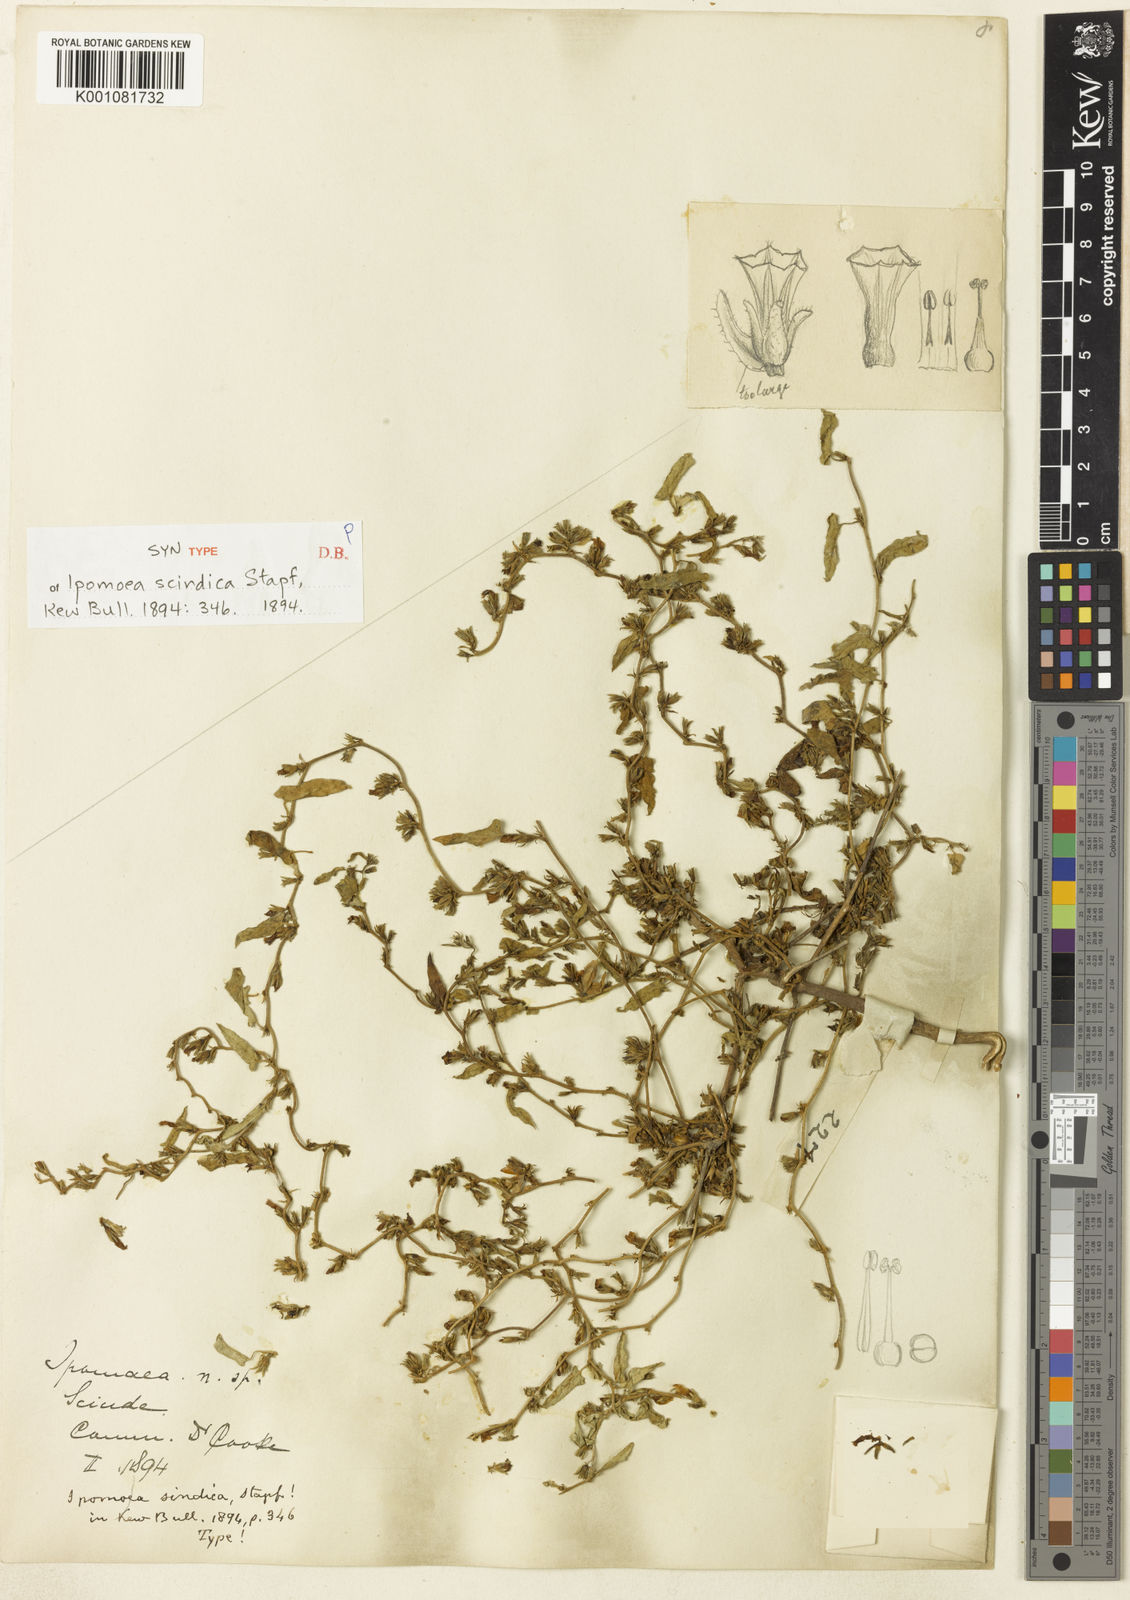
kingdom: Plantae
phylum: Tracheophyta
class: Magnoliopsida
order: Solanales
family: Convolvulaceae
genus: Ipomoea
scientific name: Ipomoea eriocarpa
